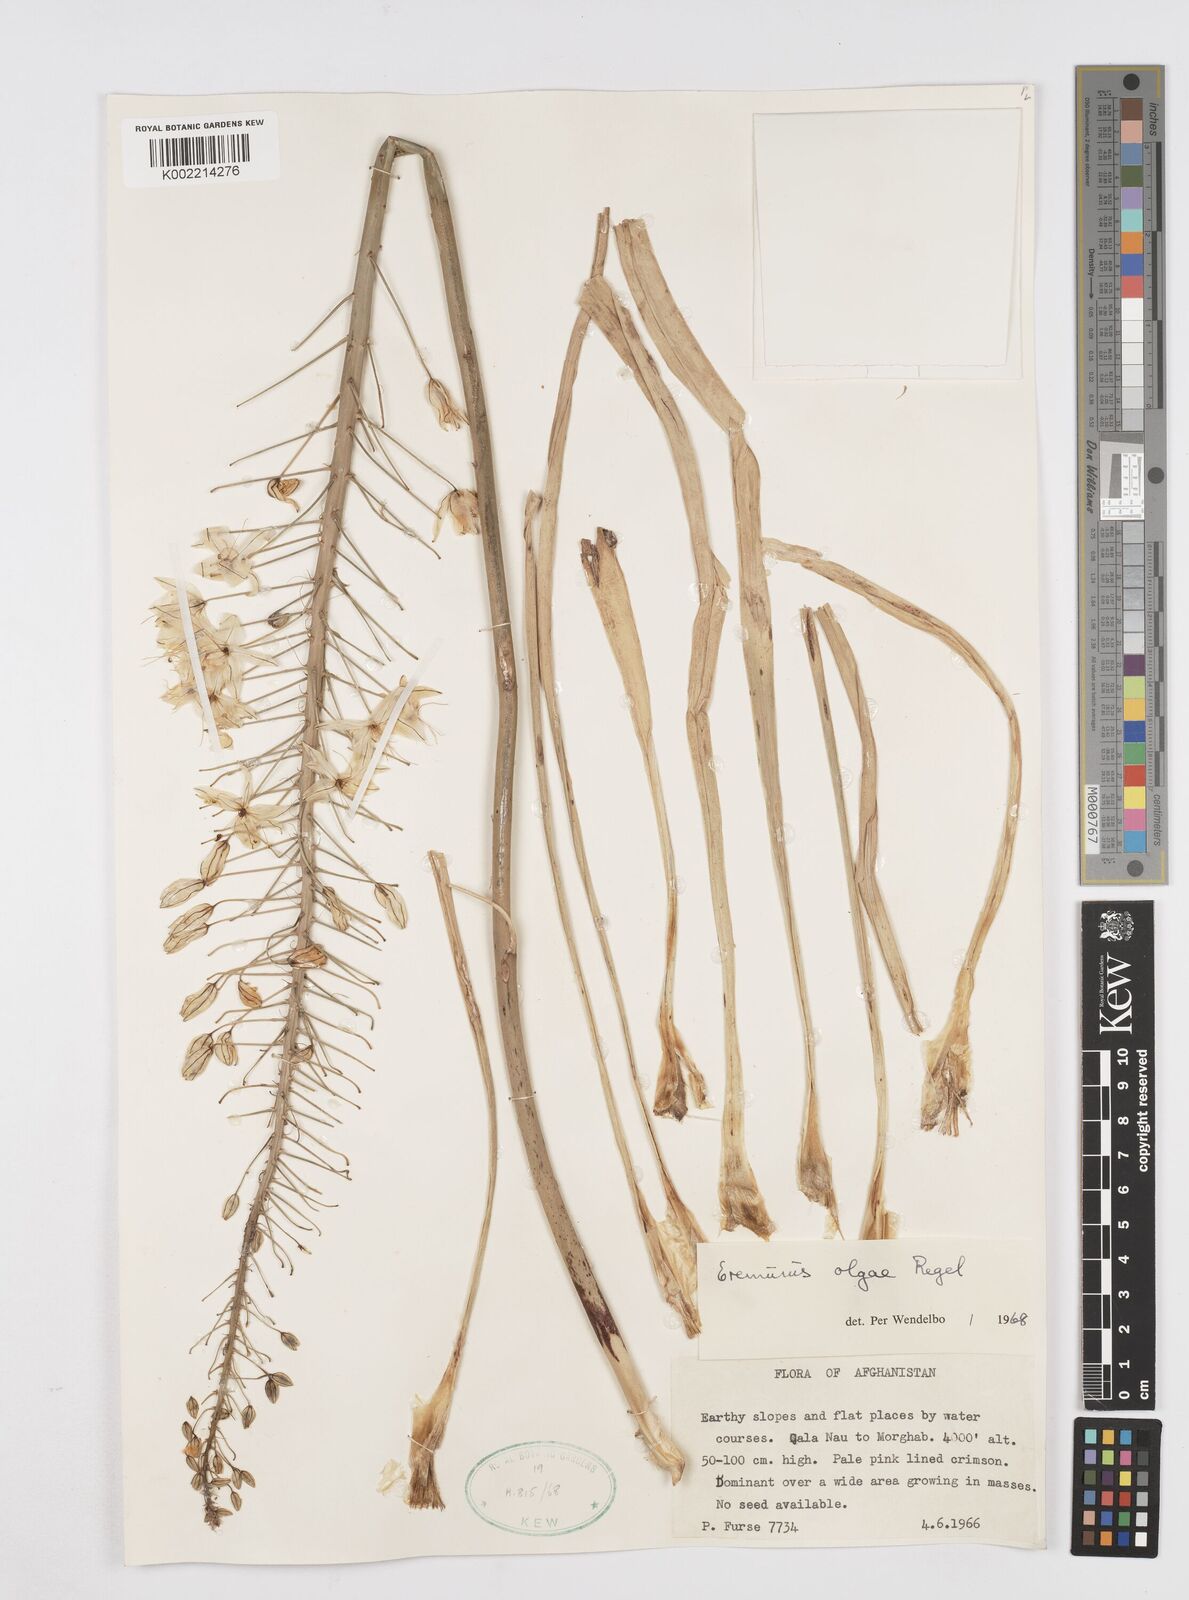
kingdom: Plantae
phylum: Tracheophyta
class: Liliopsida
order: Asparagales
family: Asphodelaceae
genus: Eremurus
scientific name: Eremurus olgae
